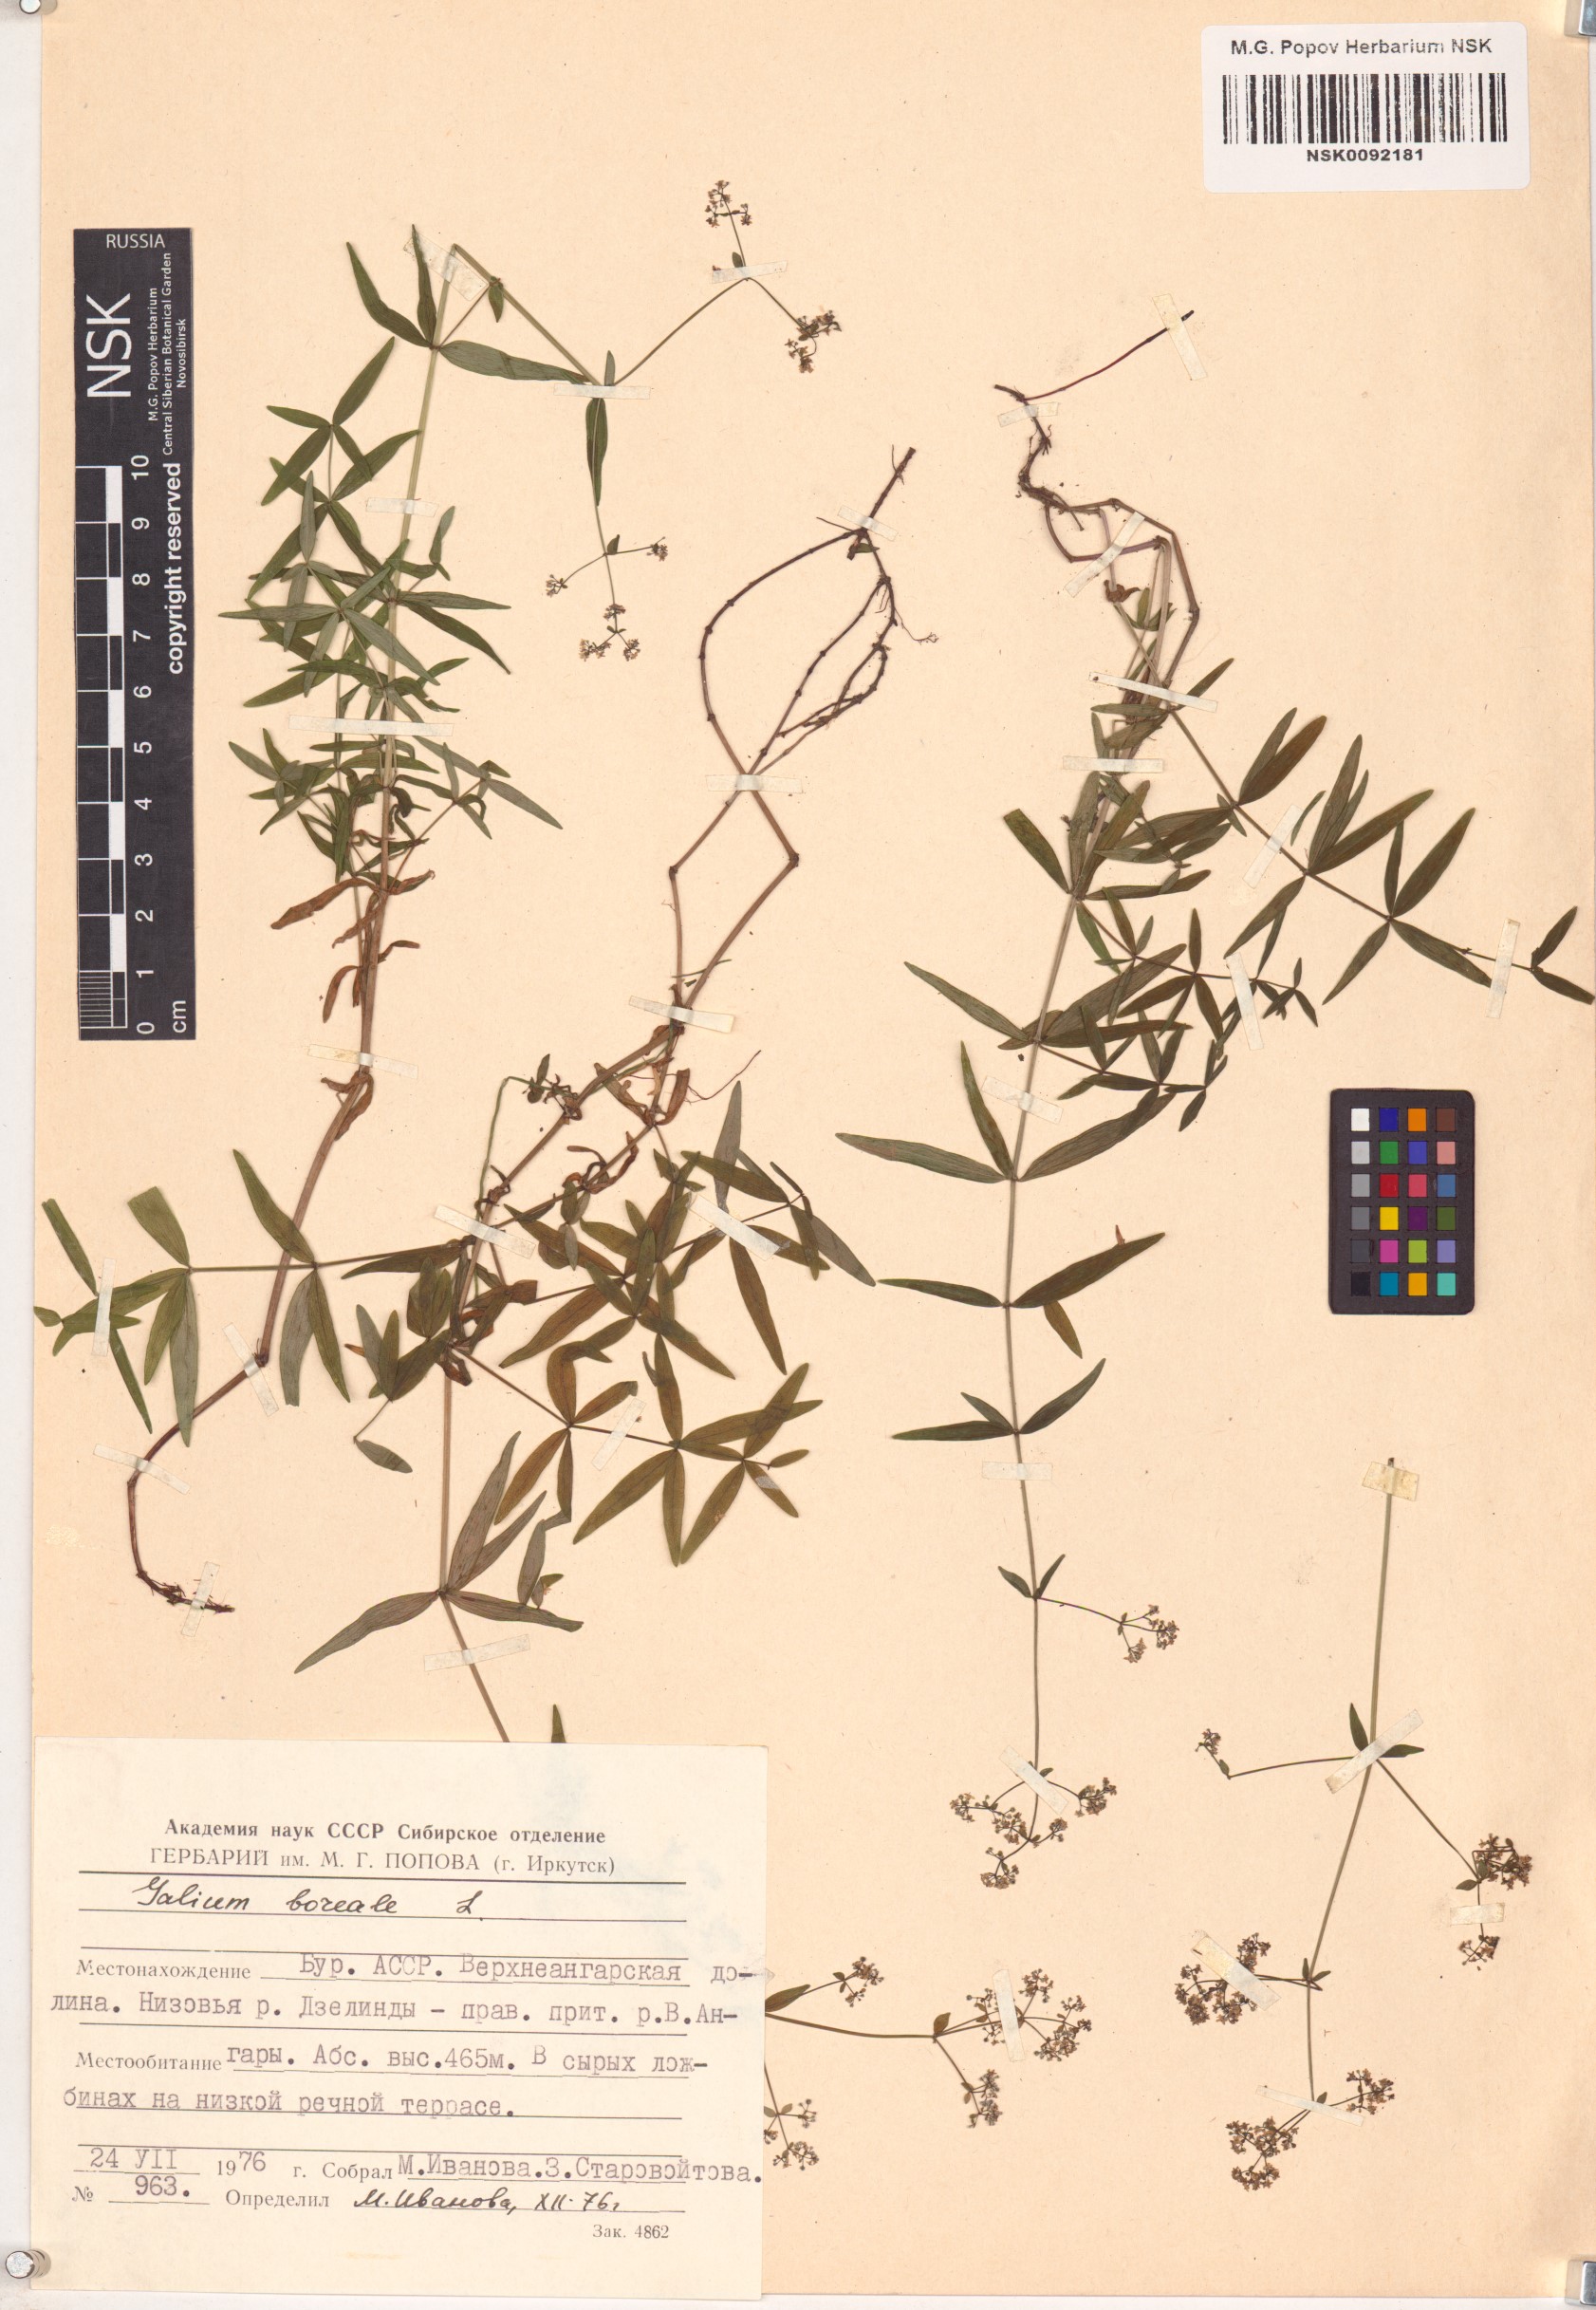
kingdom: Plantae
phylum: Tracheophyta
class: Magnoliopsida
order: Gentianales
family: Rubiaceae
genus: Galium
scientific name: Galium boreale
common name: Northern bedstraw
